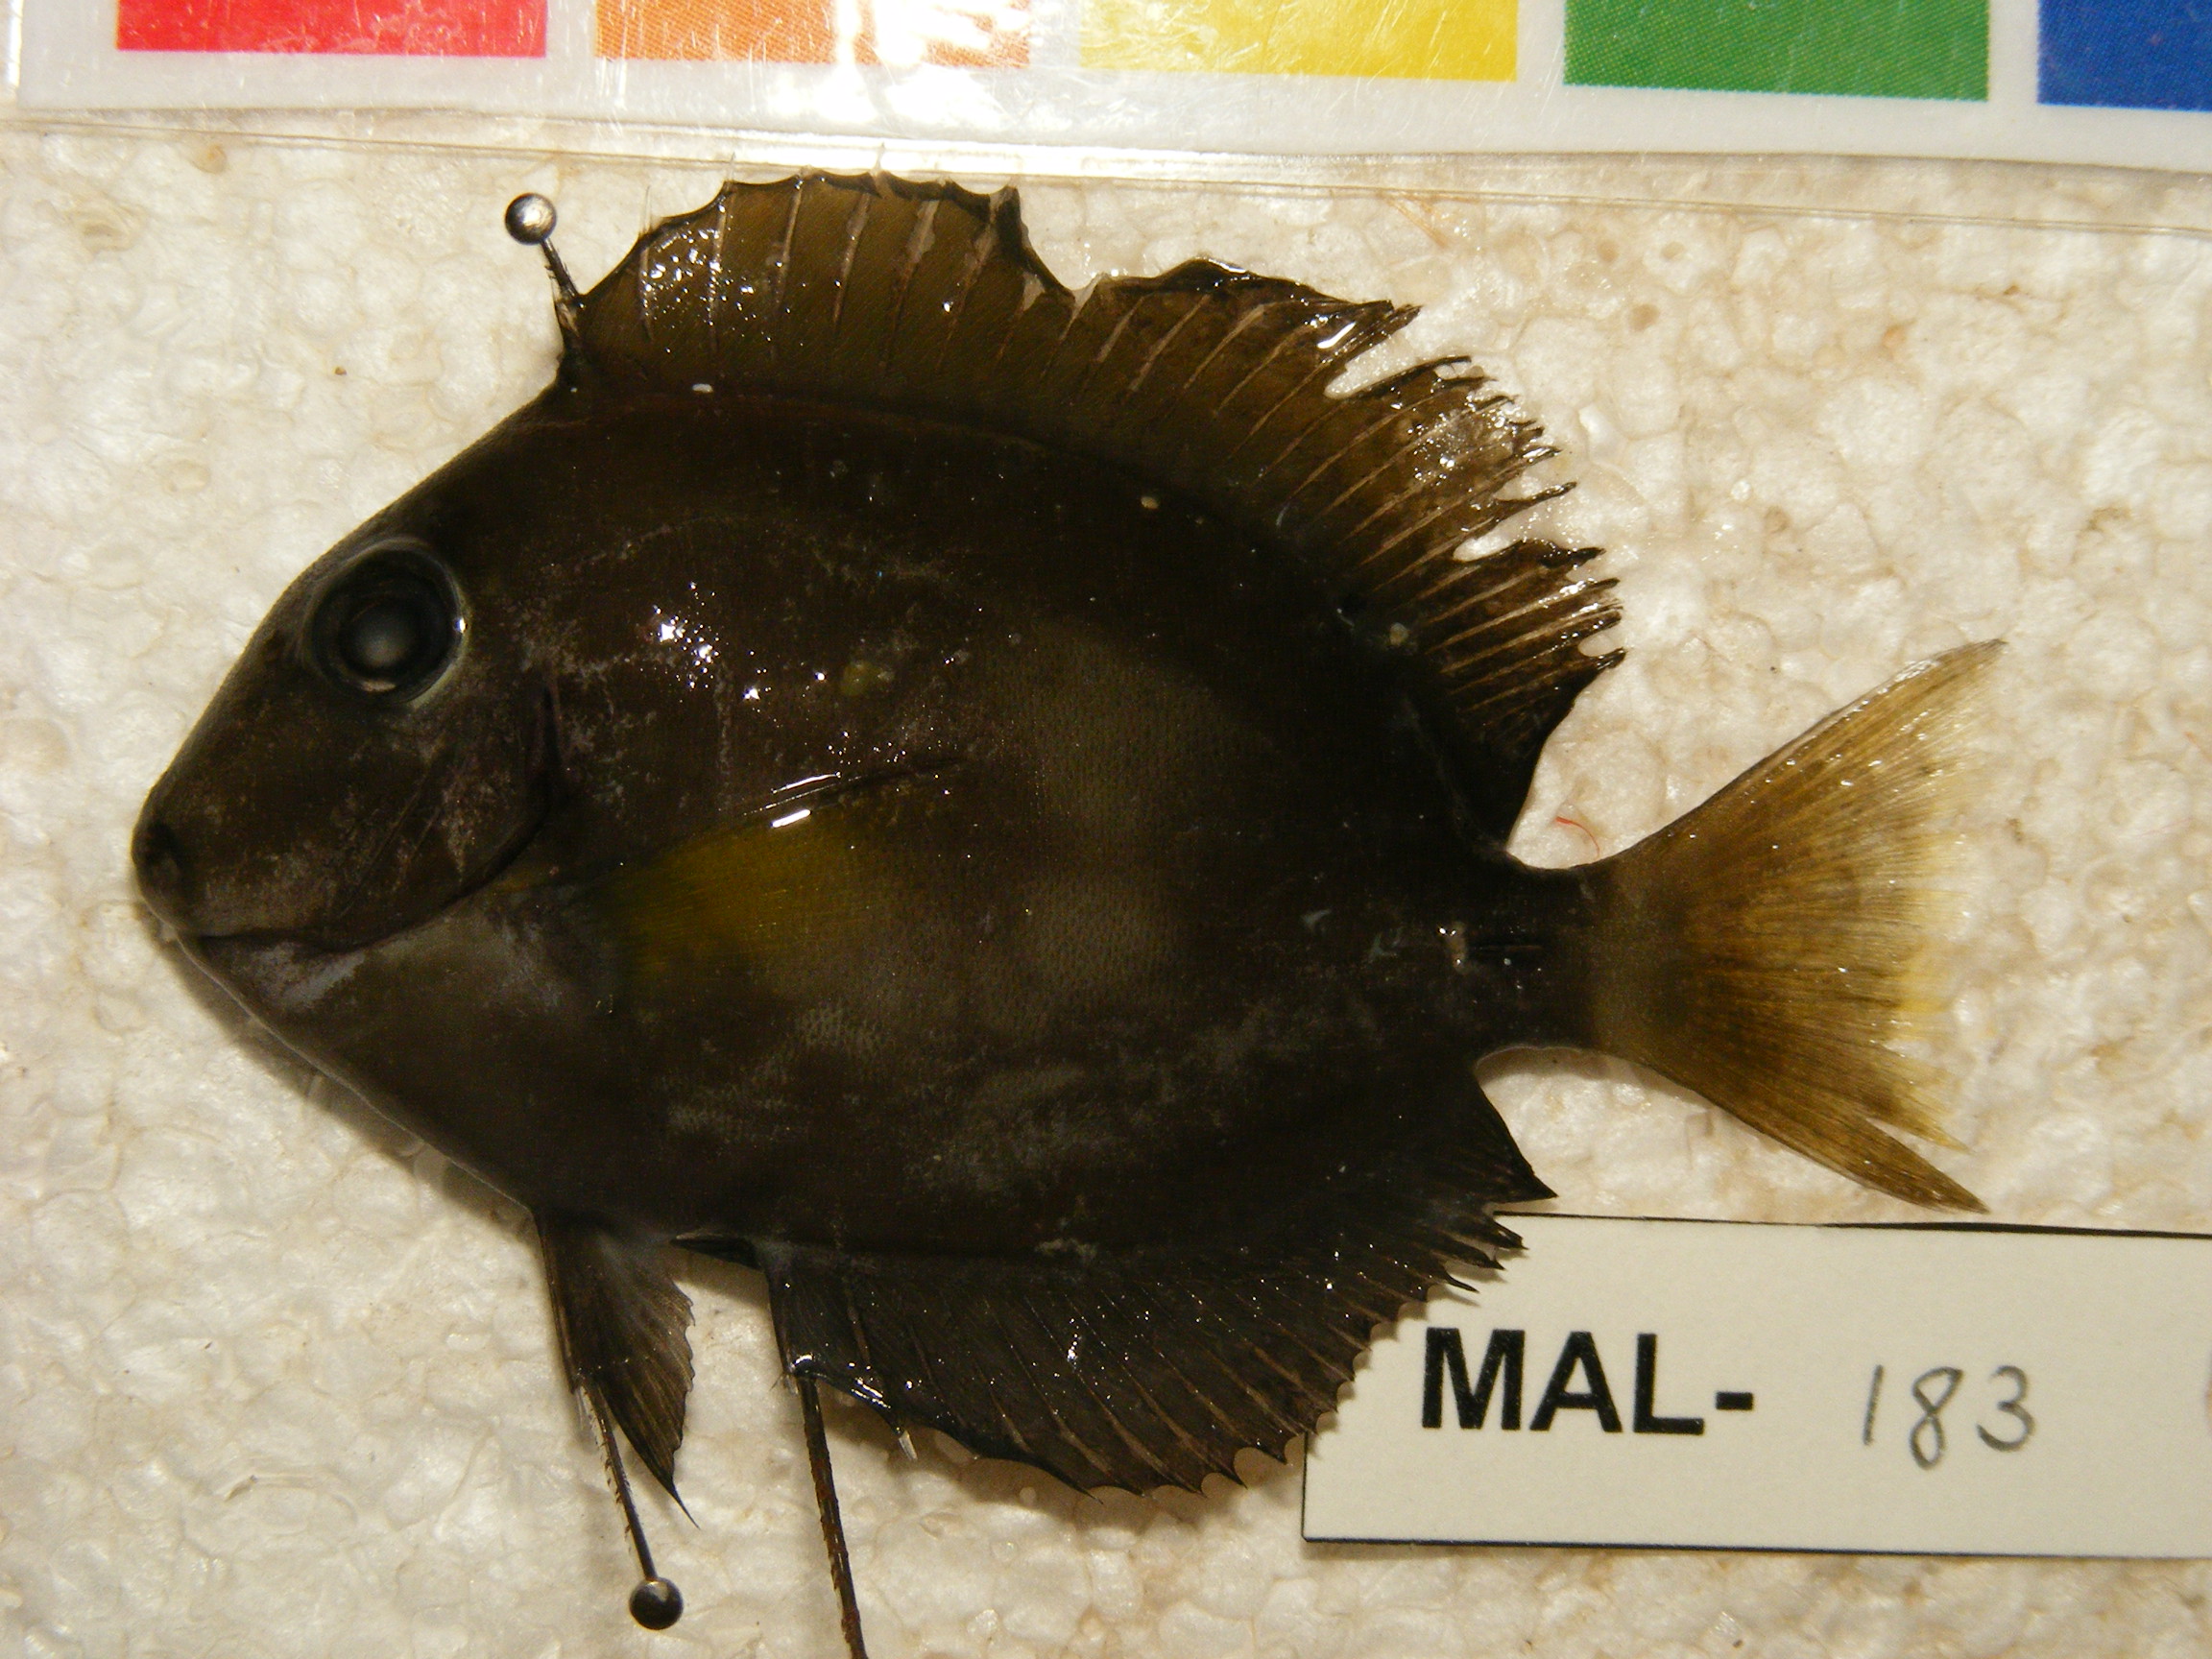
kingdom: Animalia
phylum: Chordata
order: Perciformes
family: Acanthuridae
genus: Acanthurus
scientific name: Acanthurus
